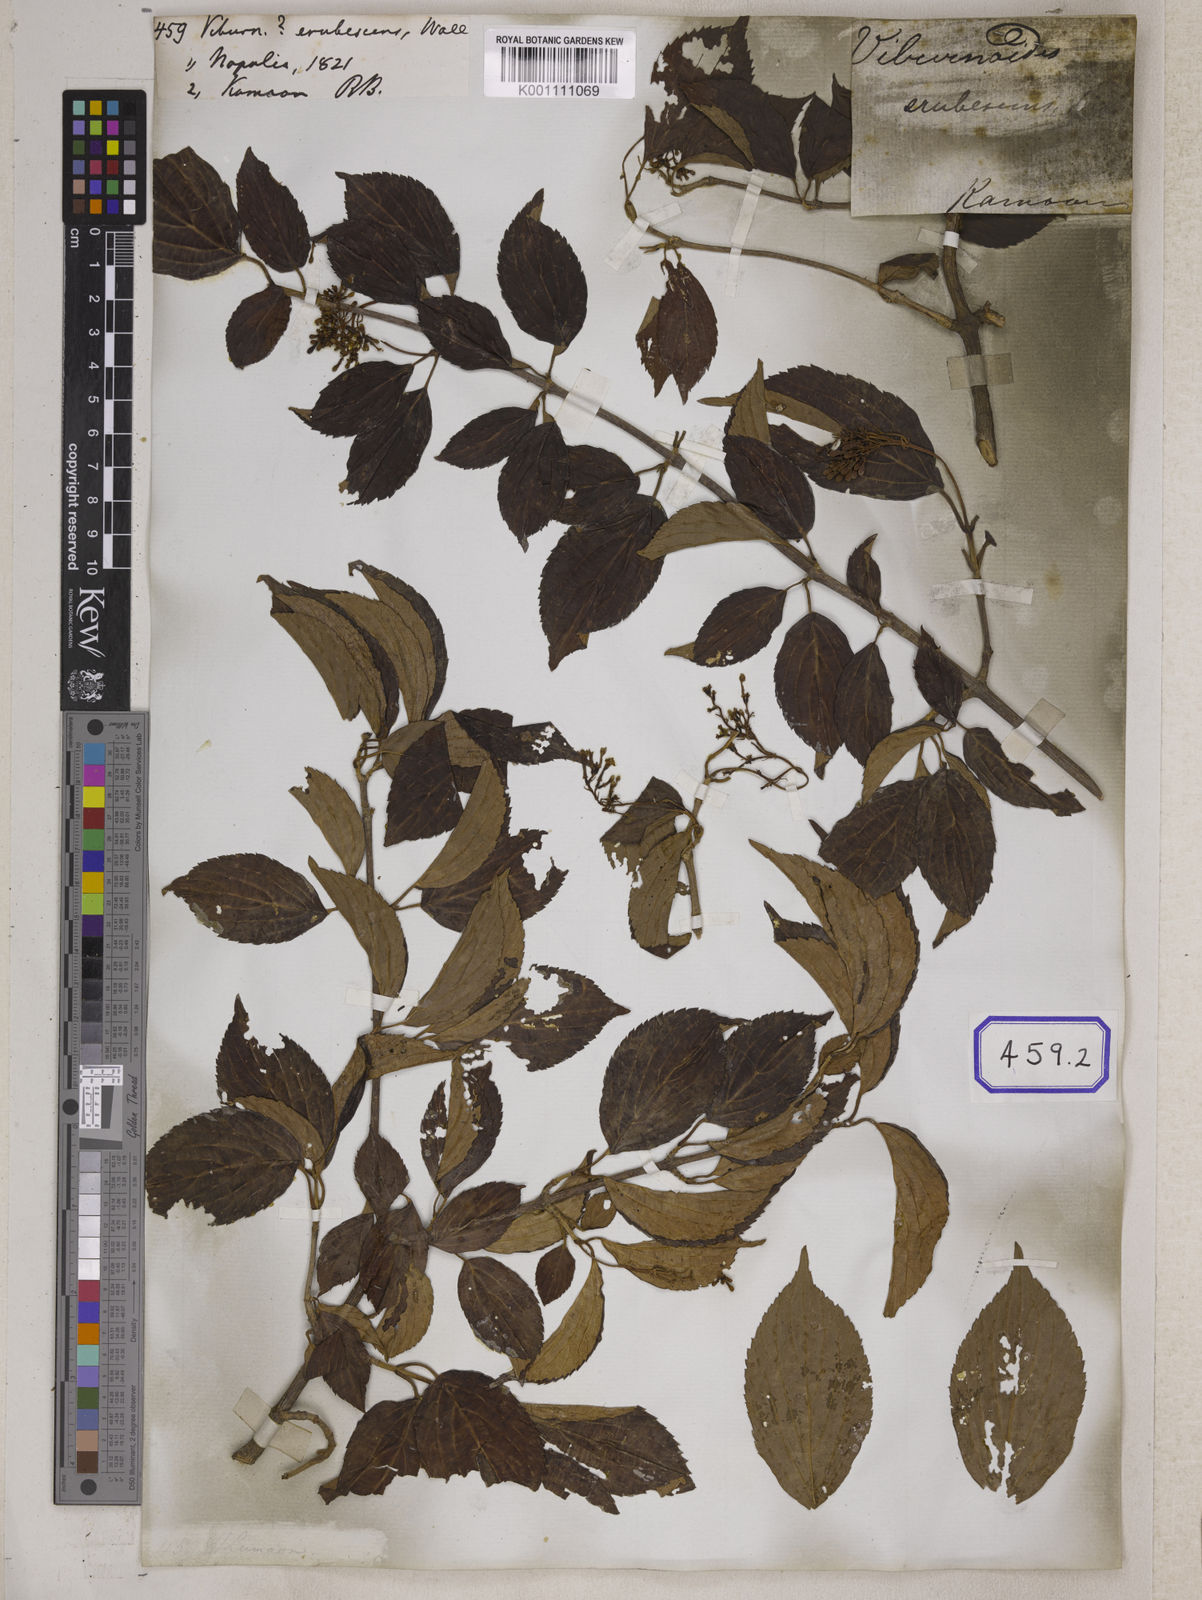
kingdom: Plantae
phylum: Tracheophyta
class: Magnoliopsida
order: Dipsacales
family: Viburnaceae
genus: Viburnum
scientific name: Viburnum
